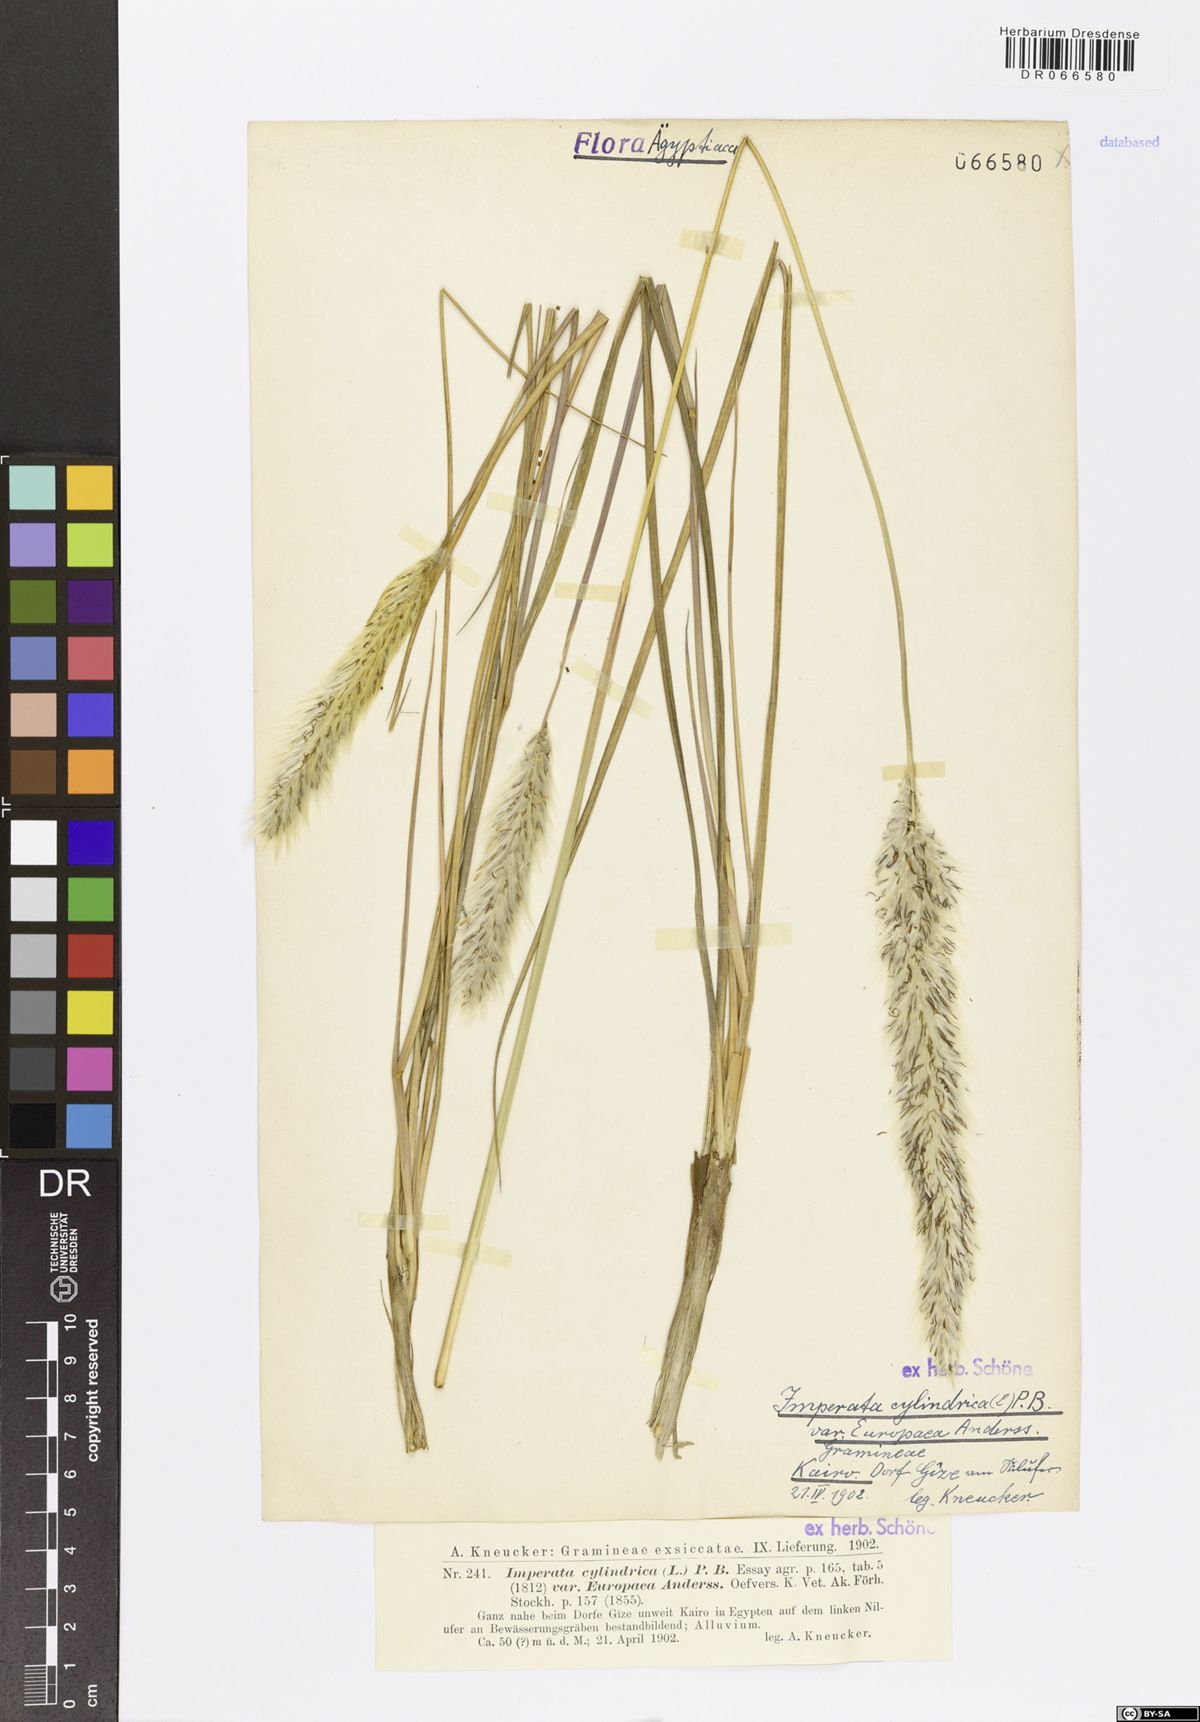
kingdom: Plantae
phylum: Tracheophyta
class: Liliopsida
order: Poales
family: Poaceae
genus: Imperata
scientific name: Imperata cylindrica
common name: Cogongrass
